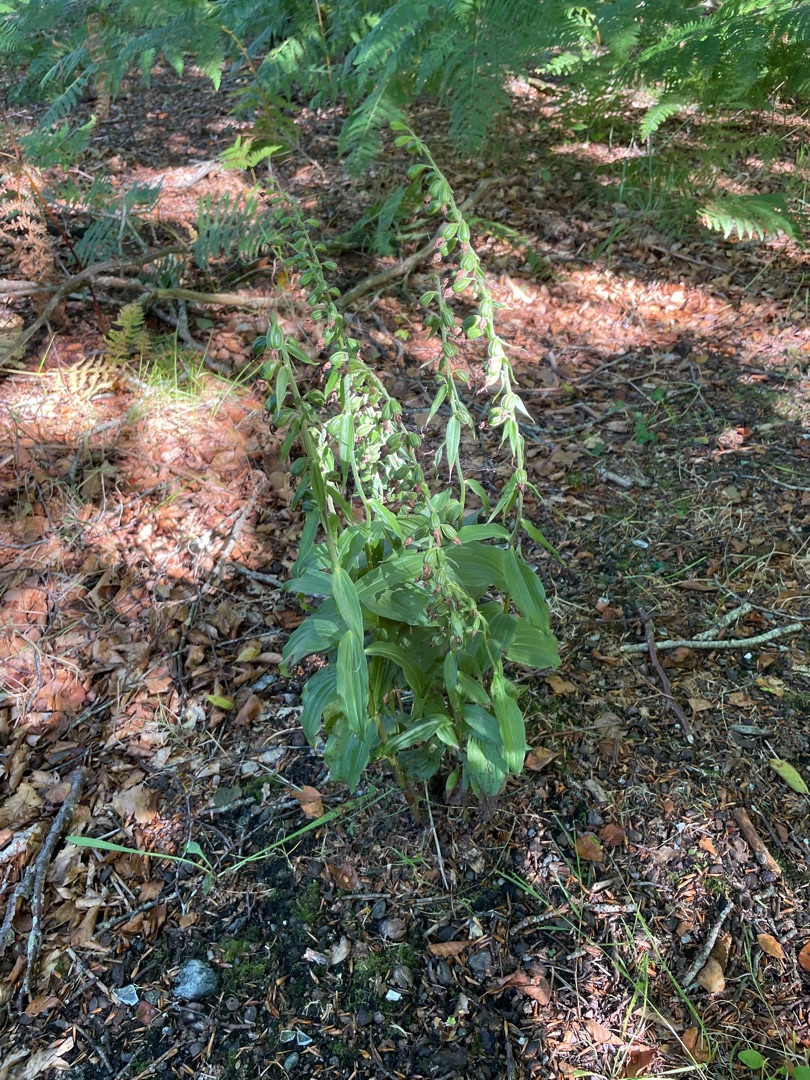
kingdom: Plantae
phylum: Tracheophyta
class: Liliopsida
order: Asparagales
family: Orchidaceae
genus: Epipactis
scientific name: Epipactis helleborine
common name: Skov-hullæbe
